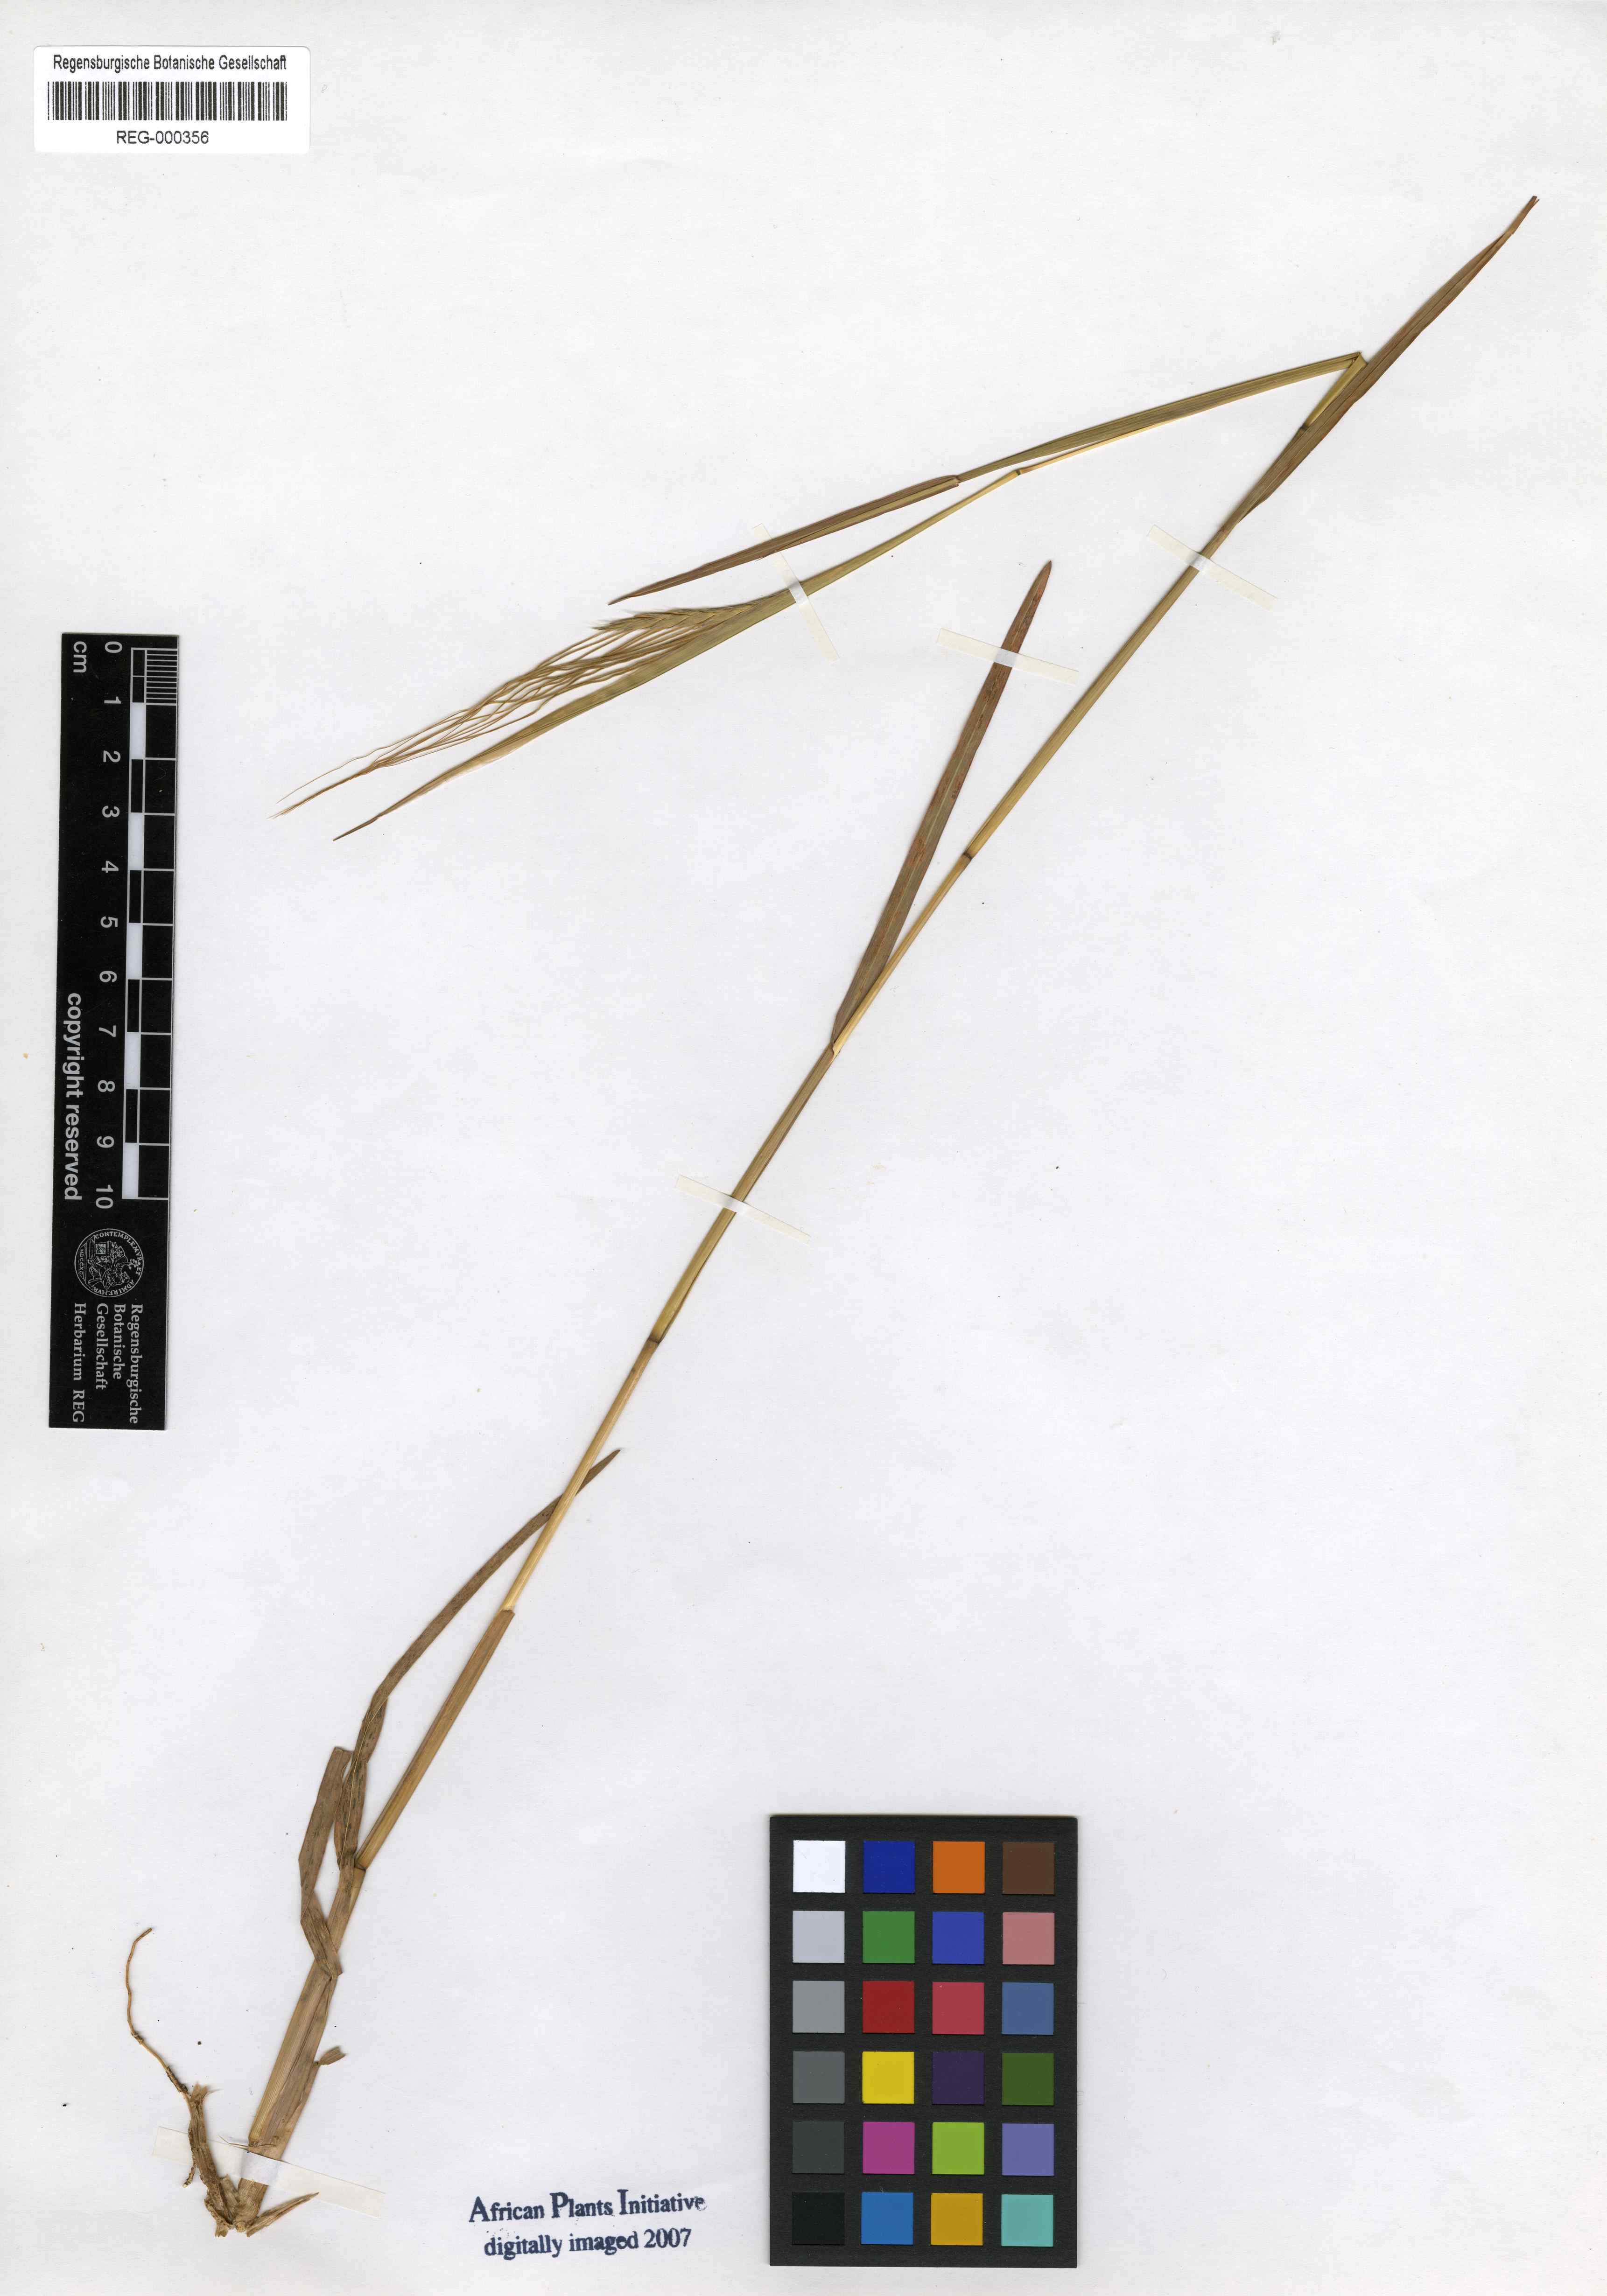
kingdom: Plantae
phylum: Tracheophyta
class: Liliopsida
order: Poales
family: Poaceae
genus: Heteropogon
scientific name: Heteropogon contortus
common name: Tanglehead
